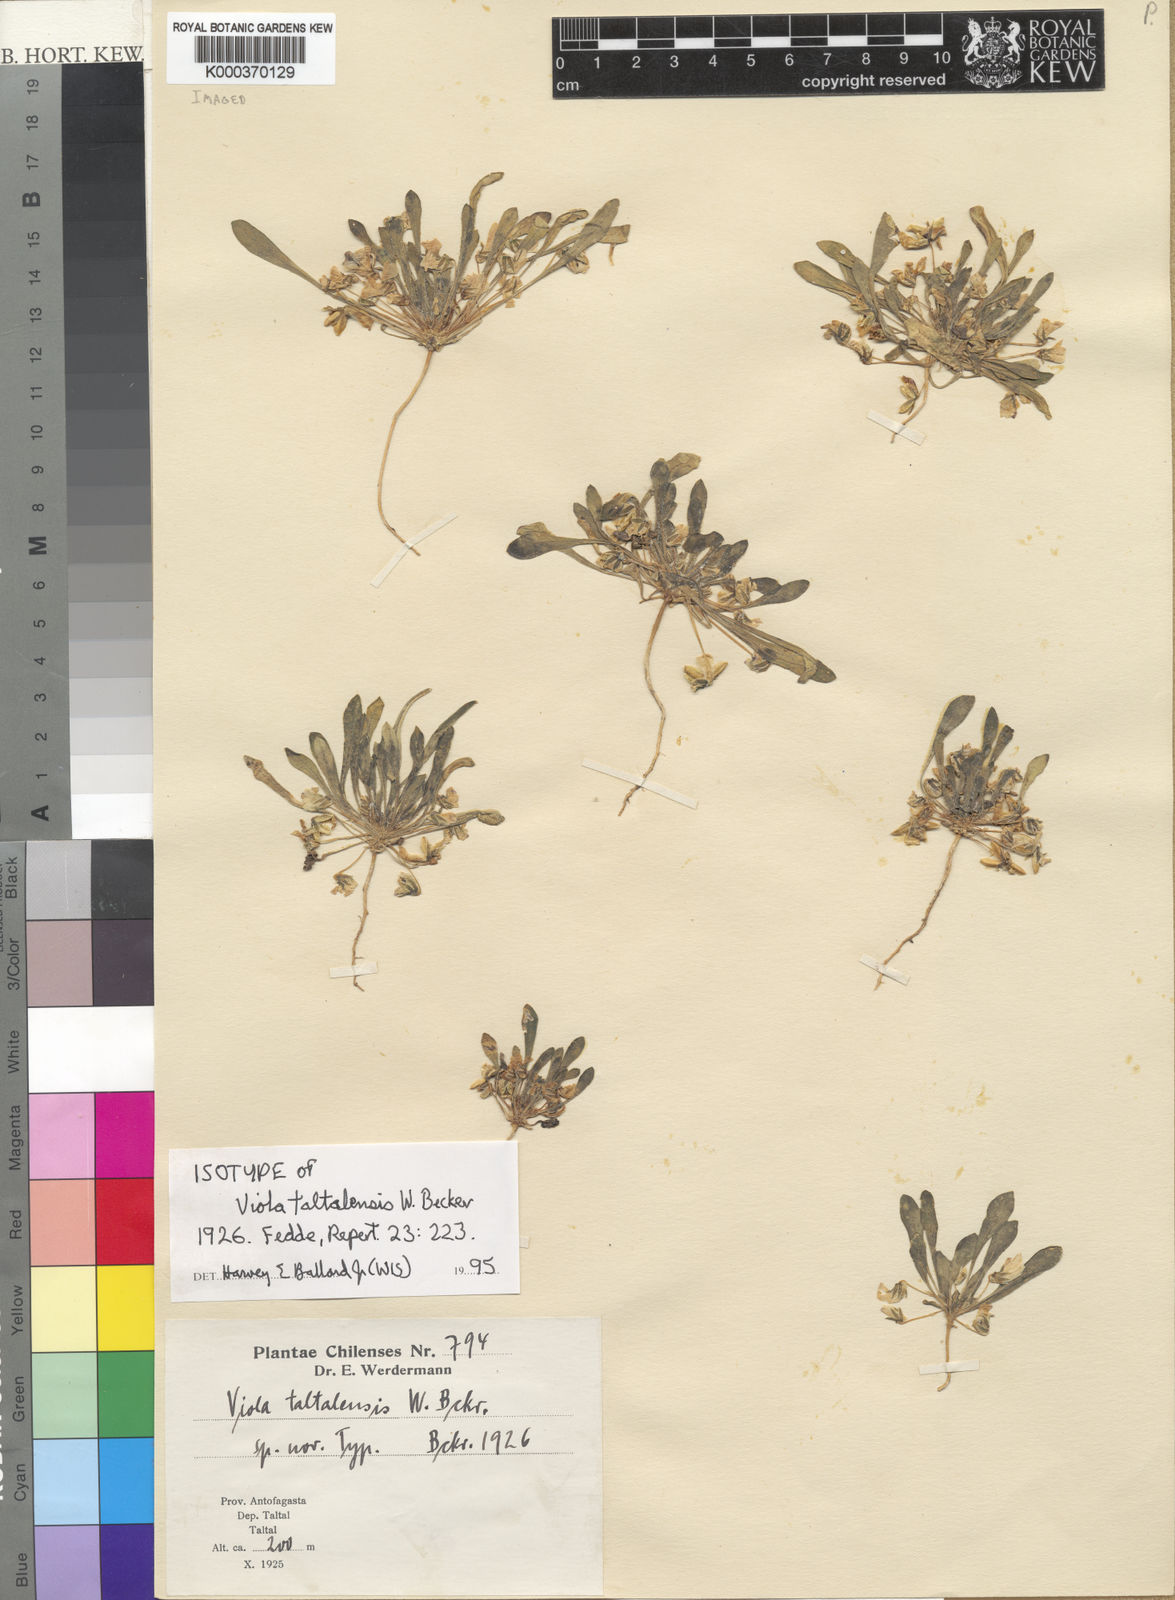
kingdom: Plantae
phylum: Tracheophyta
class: Magnoliopsida
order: Malpighiales
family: Violaceae
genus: Viola
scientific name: Viola taltalensis
